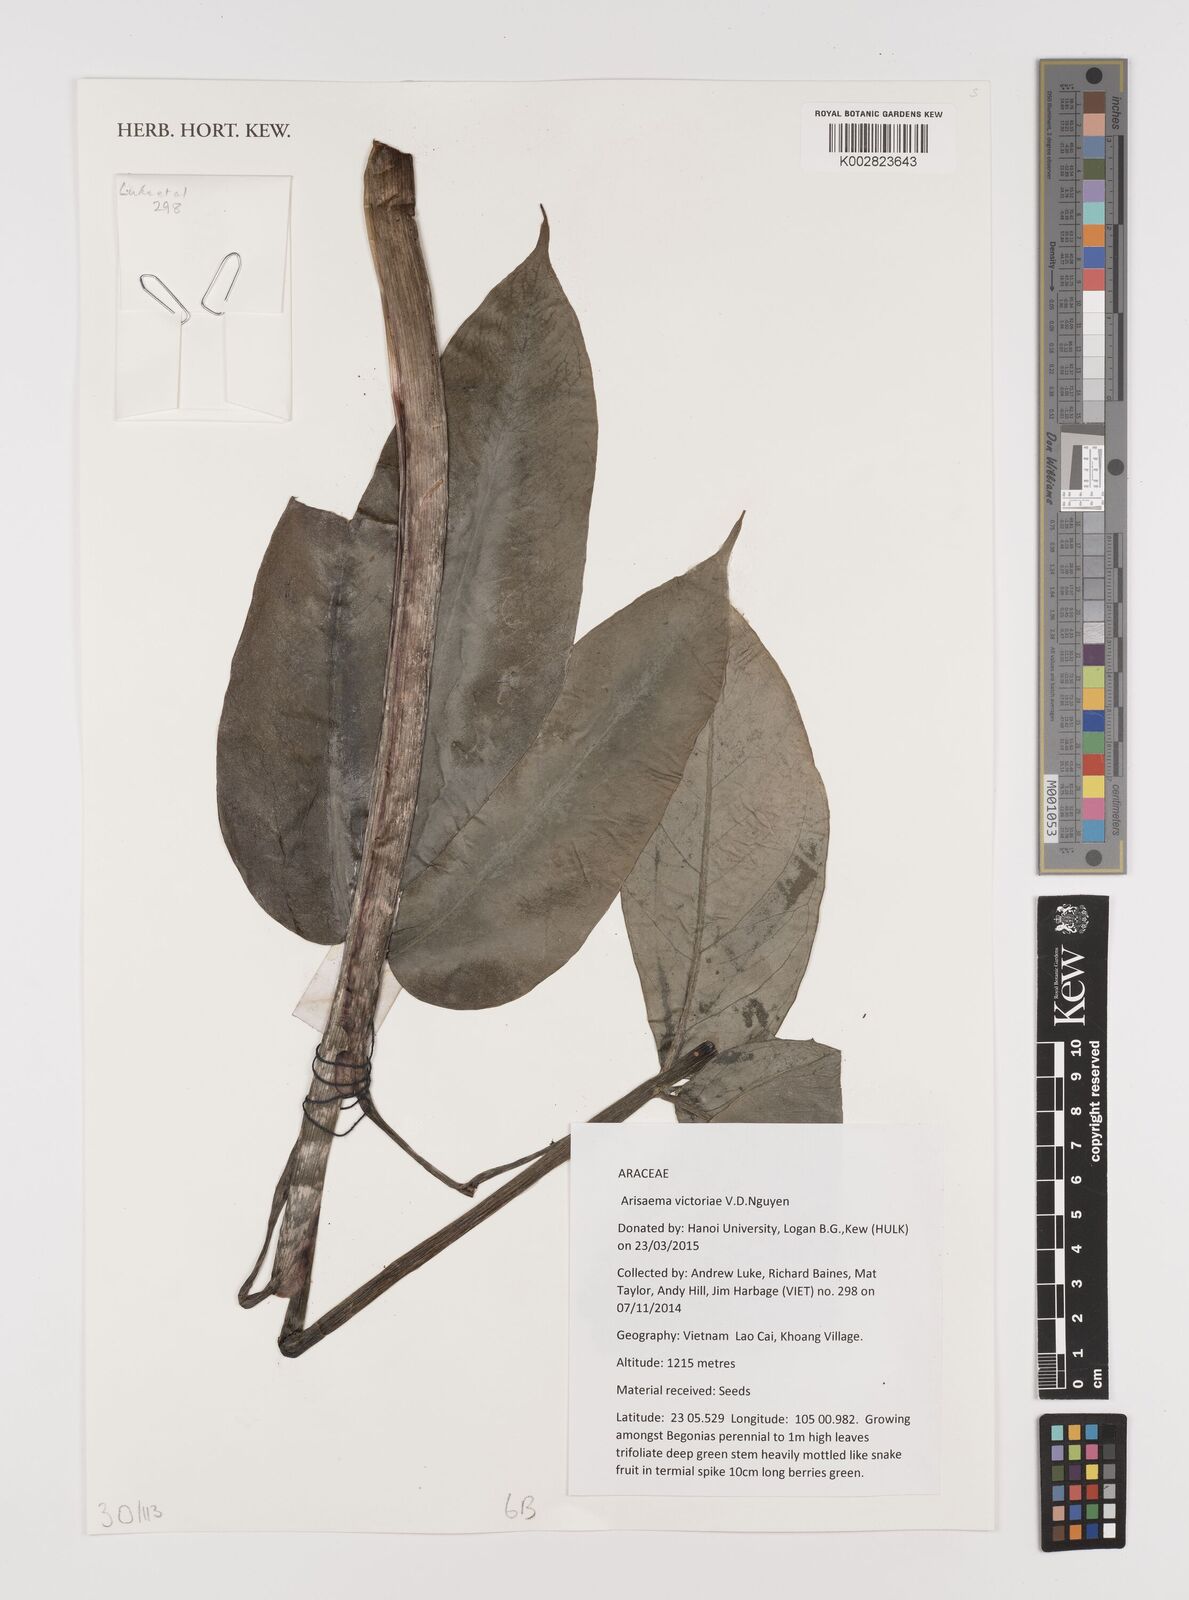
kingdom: Plantae
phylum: Tracheophyta
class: Liliopsida
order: Alismatales
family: Araceae
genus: Arisaema
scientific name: Arisaema victoriae
